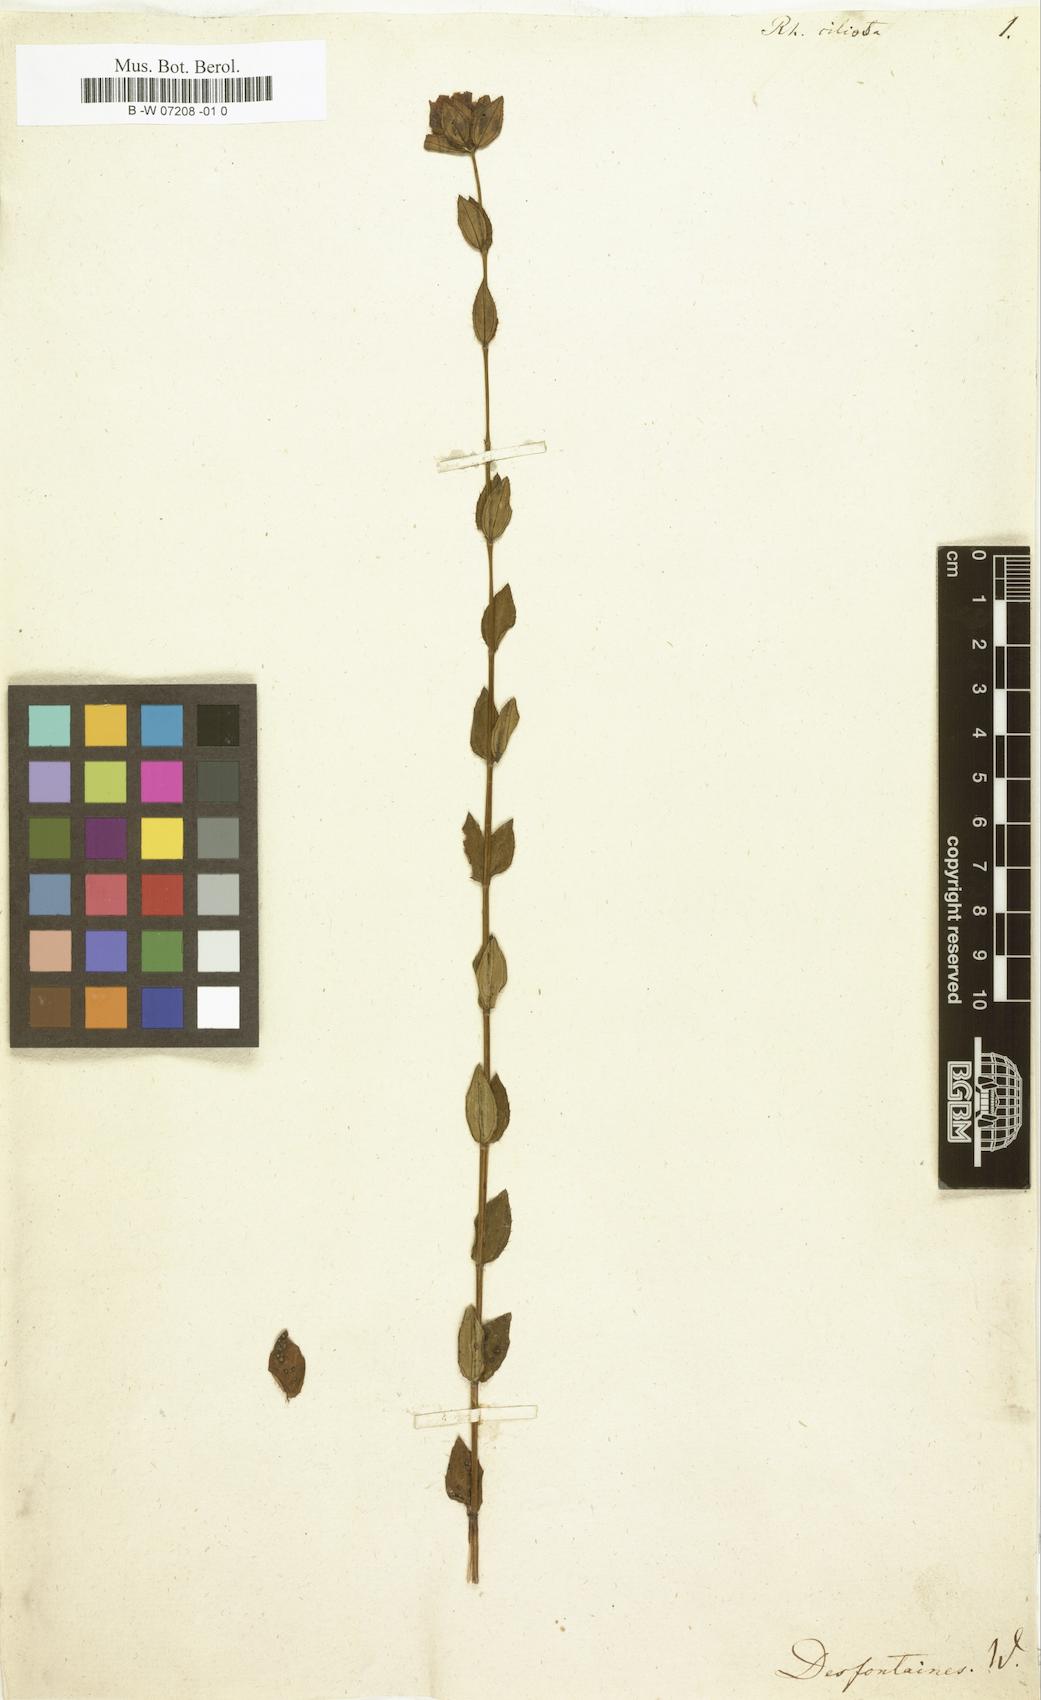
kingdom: Plantae
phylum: Tracheophyta
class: Magnoliopsida
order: Myrtales
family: Melastomataceae
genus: Rhexia
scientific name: Rhexia petiolata
